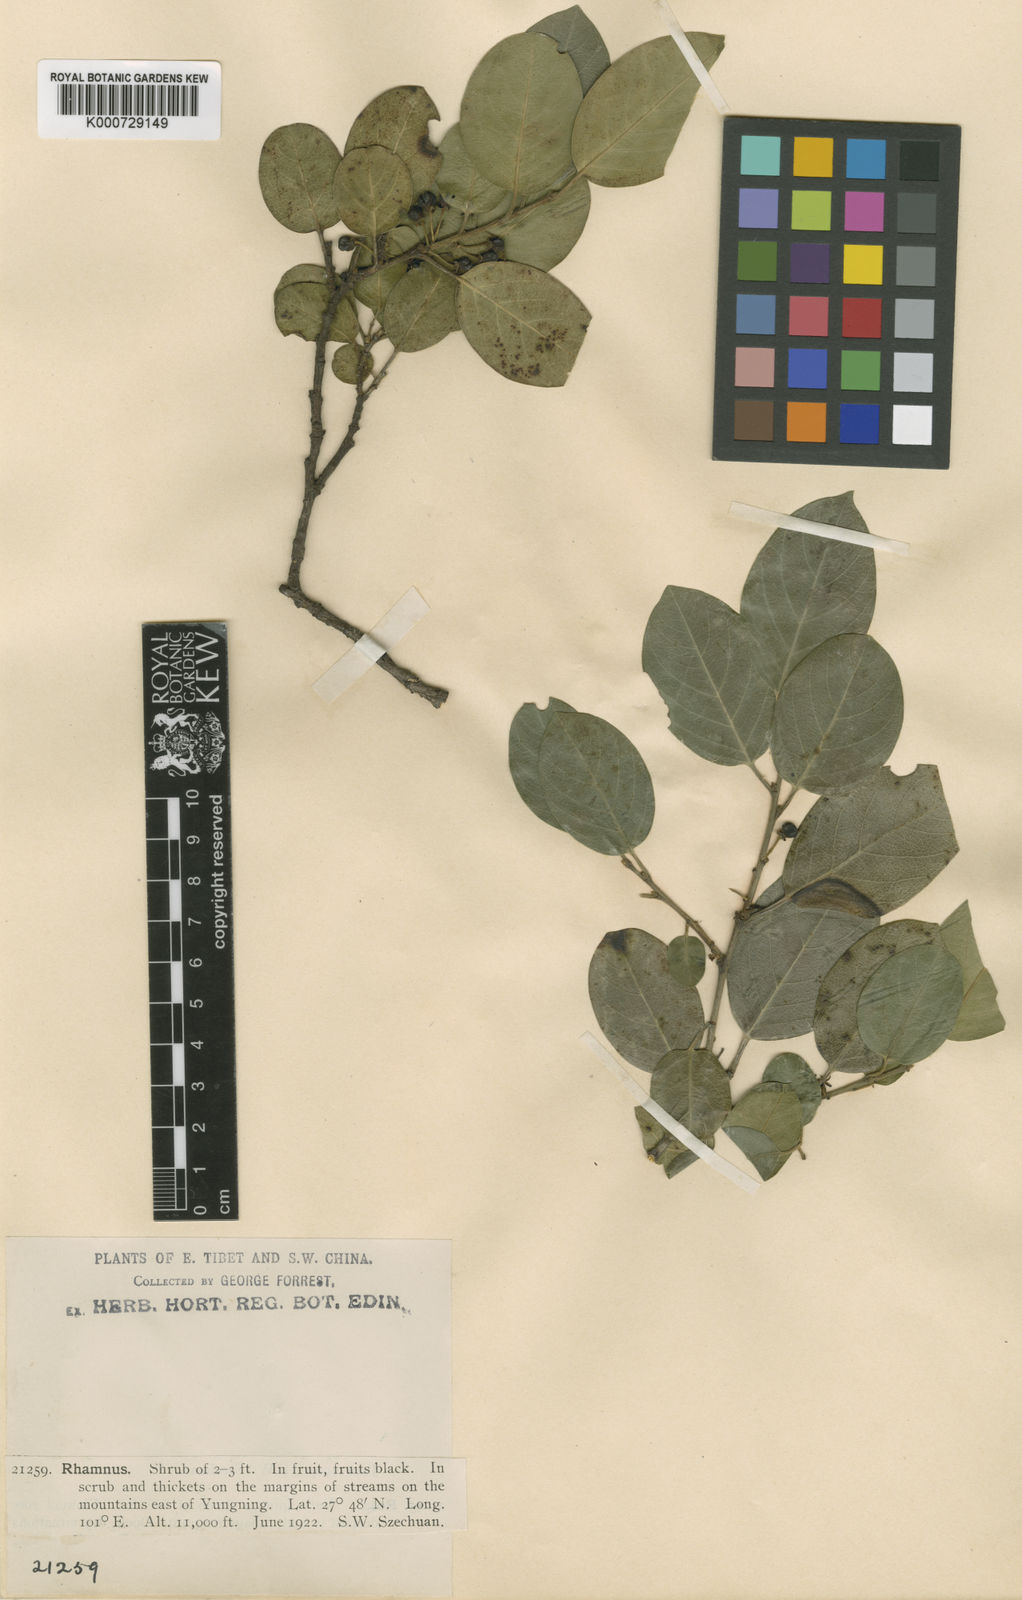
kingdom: Plantae
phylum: Tracheophyta
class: Magnoliopsida
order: Rosales
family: Rhamnaceae
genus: Rhamnus
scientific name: Rhamnus velutina
